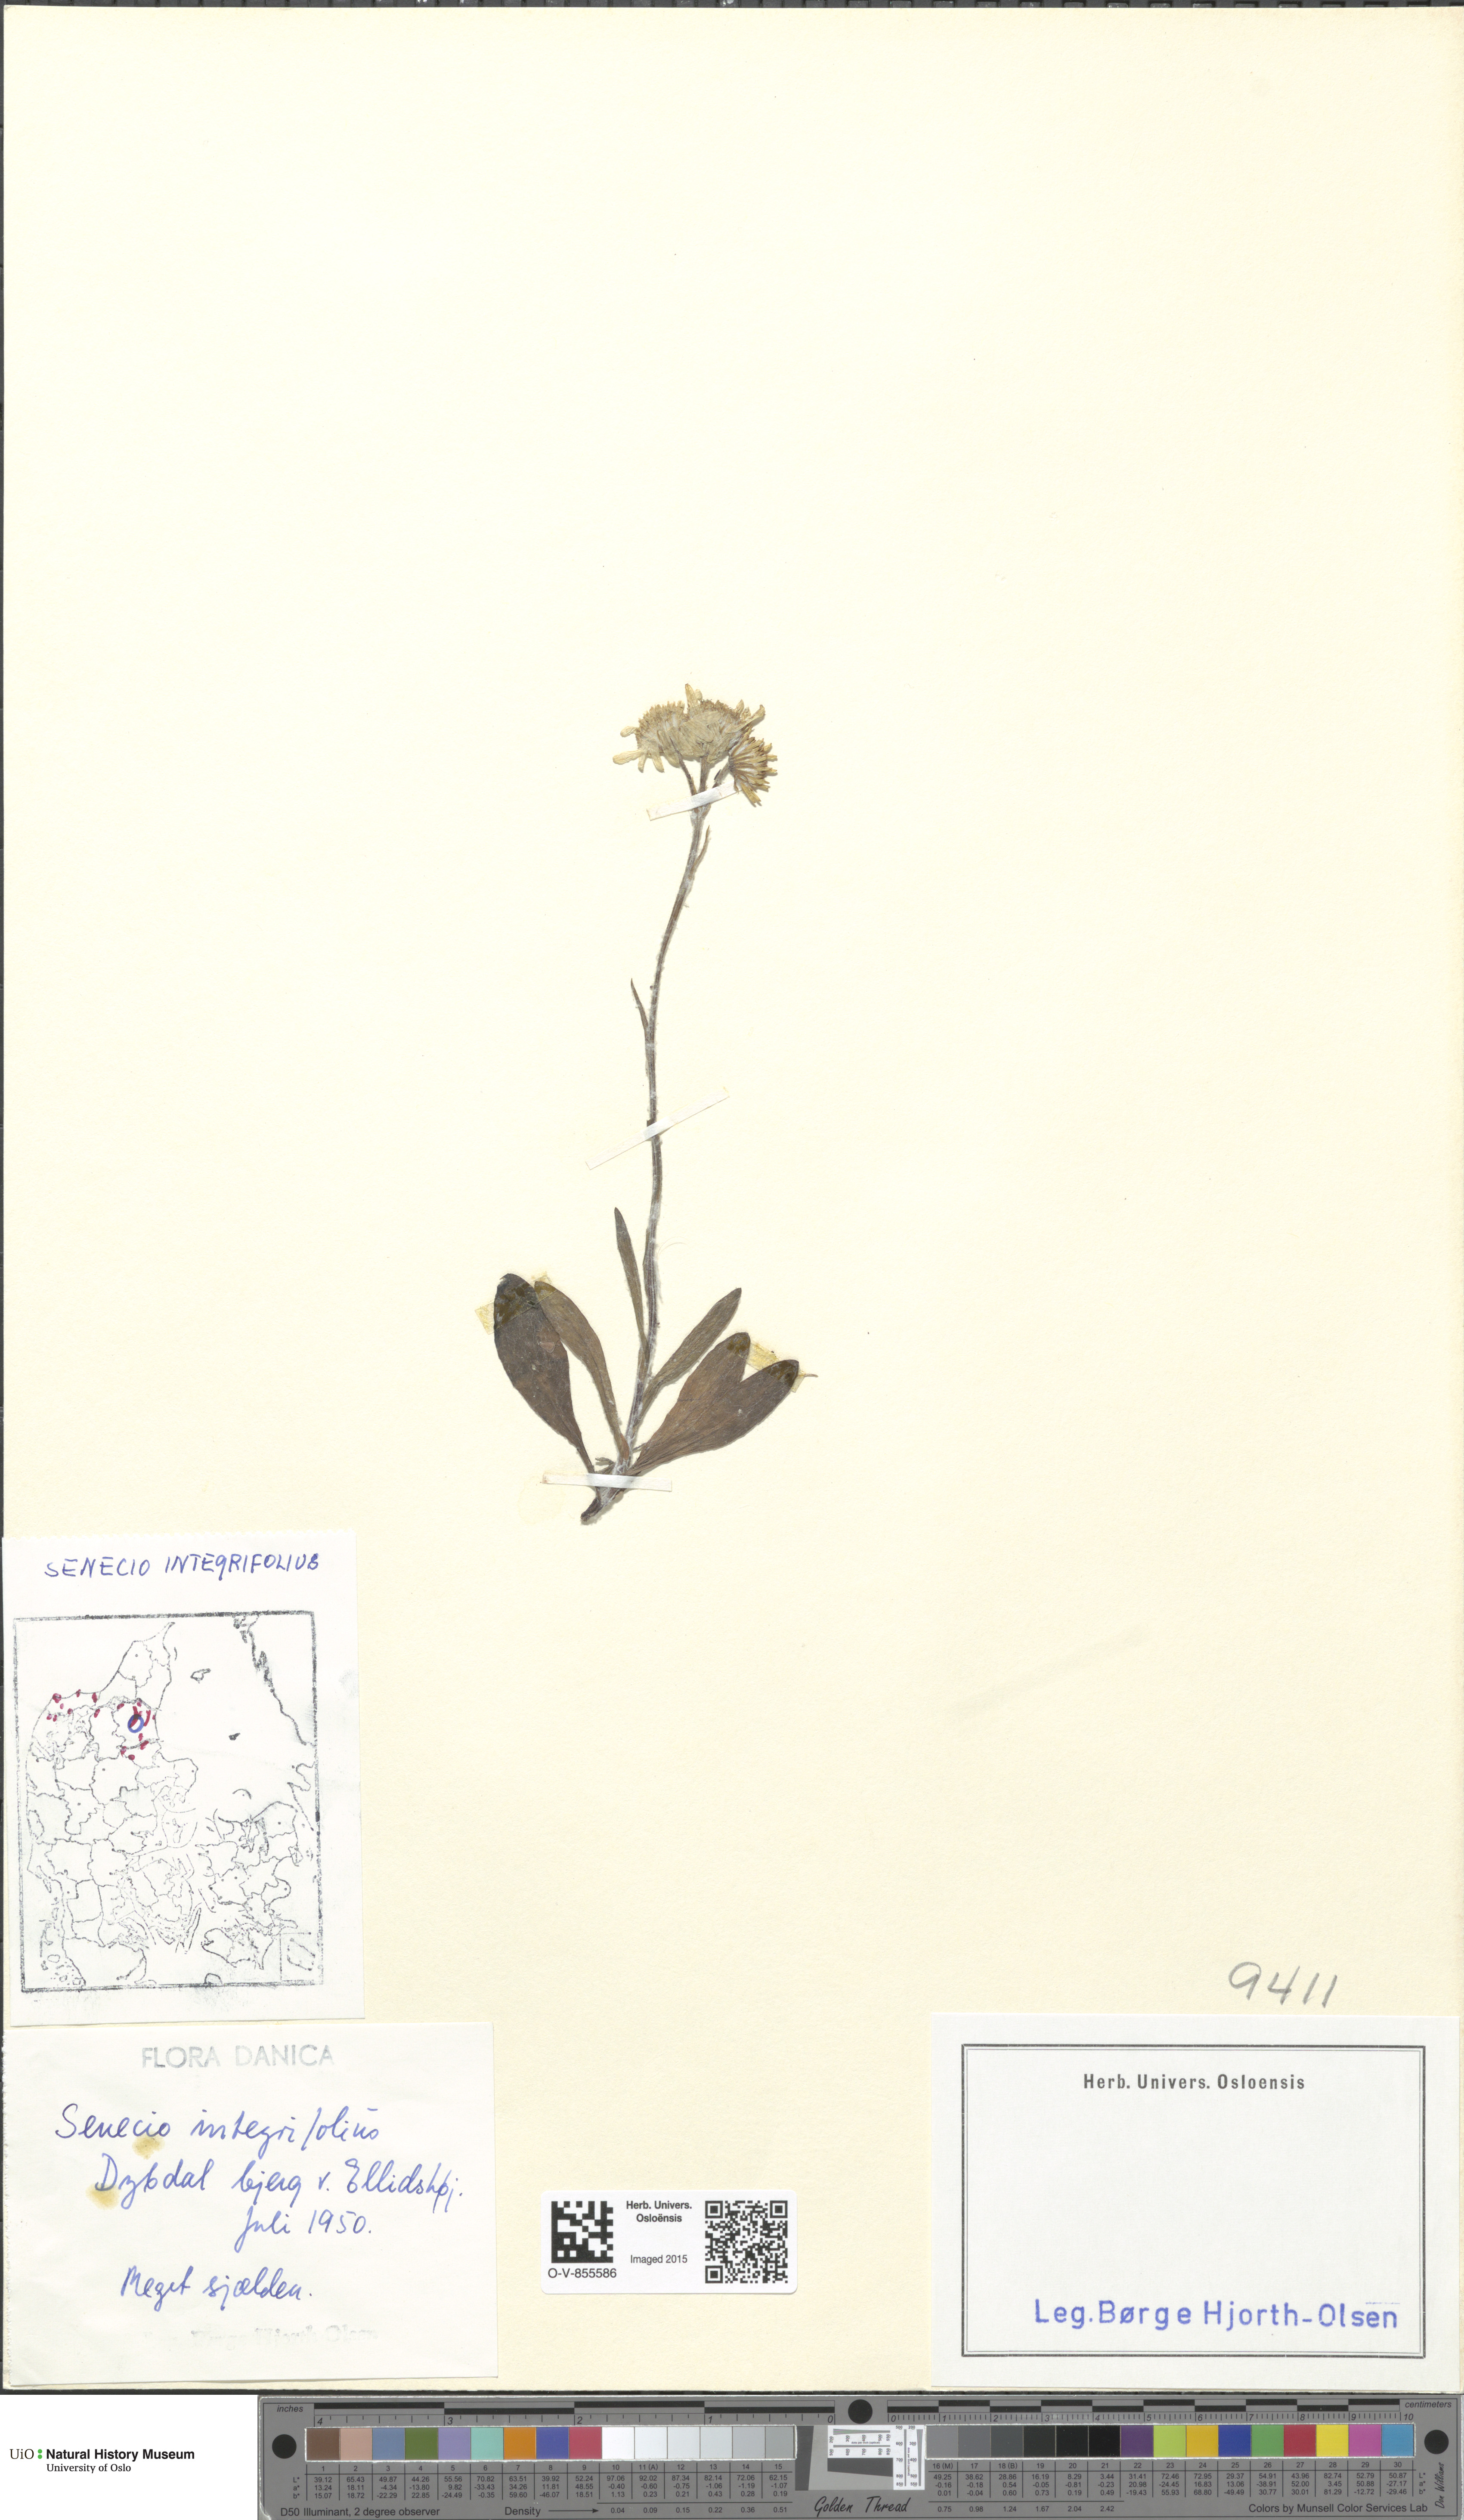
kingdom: Plantae
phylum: Tracheophyta
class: Magnoliopsida
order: Asterales
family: Asteraceae
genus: Tephroseris
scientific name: Tephroseris integrifolia
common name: Field fleawort
